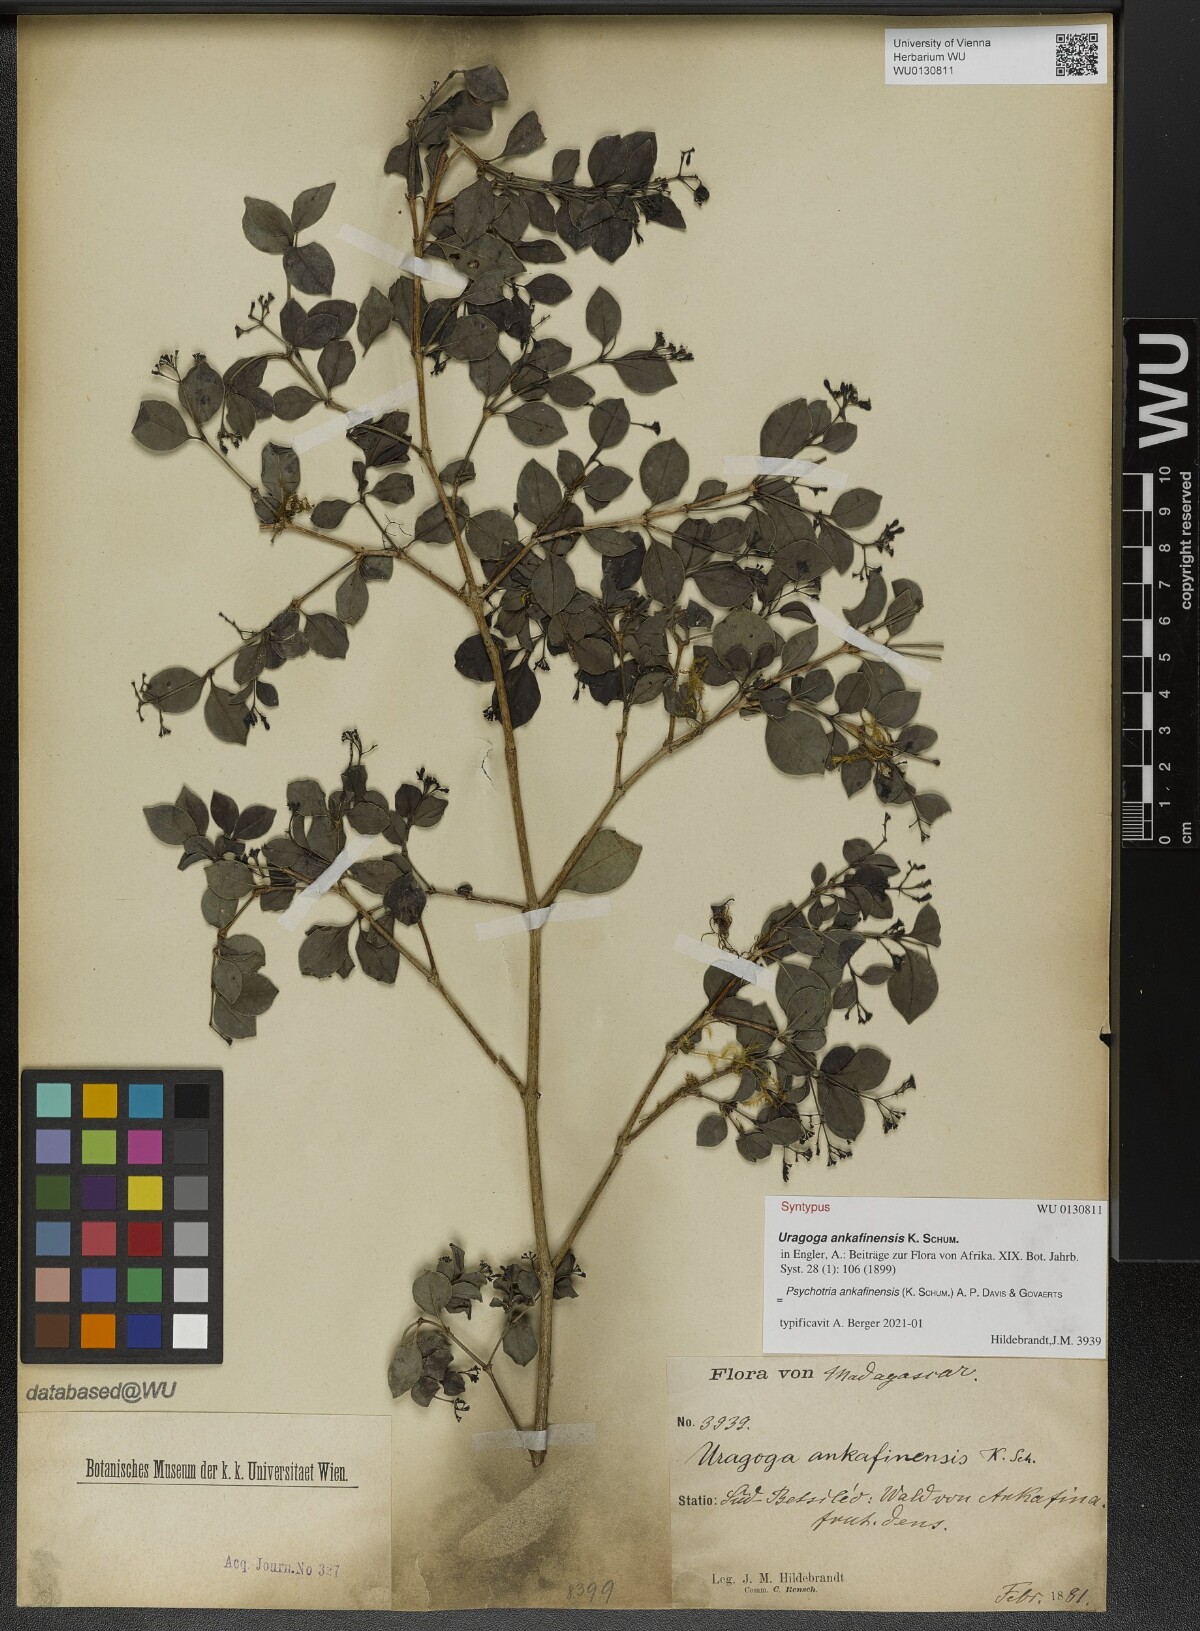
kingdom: Plantae
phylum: Tracheophyta
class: Magnoliopsida
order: Gentianales
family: Rubiaceae
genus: Psychotria
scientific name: Psychotria ankafinensis
